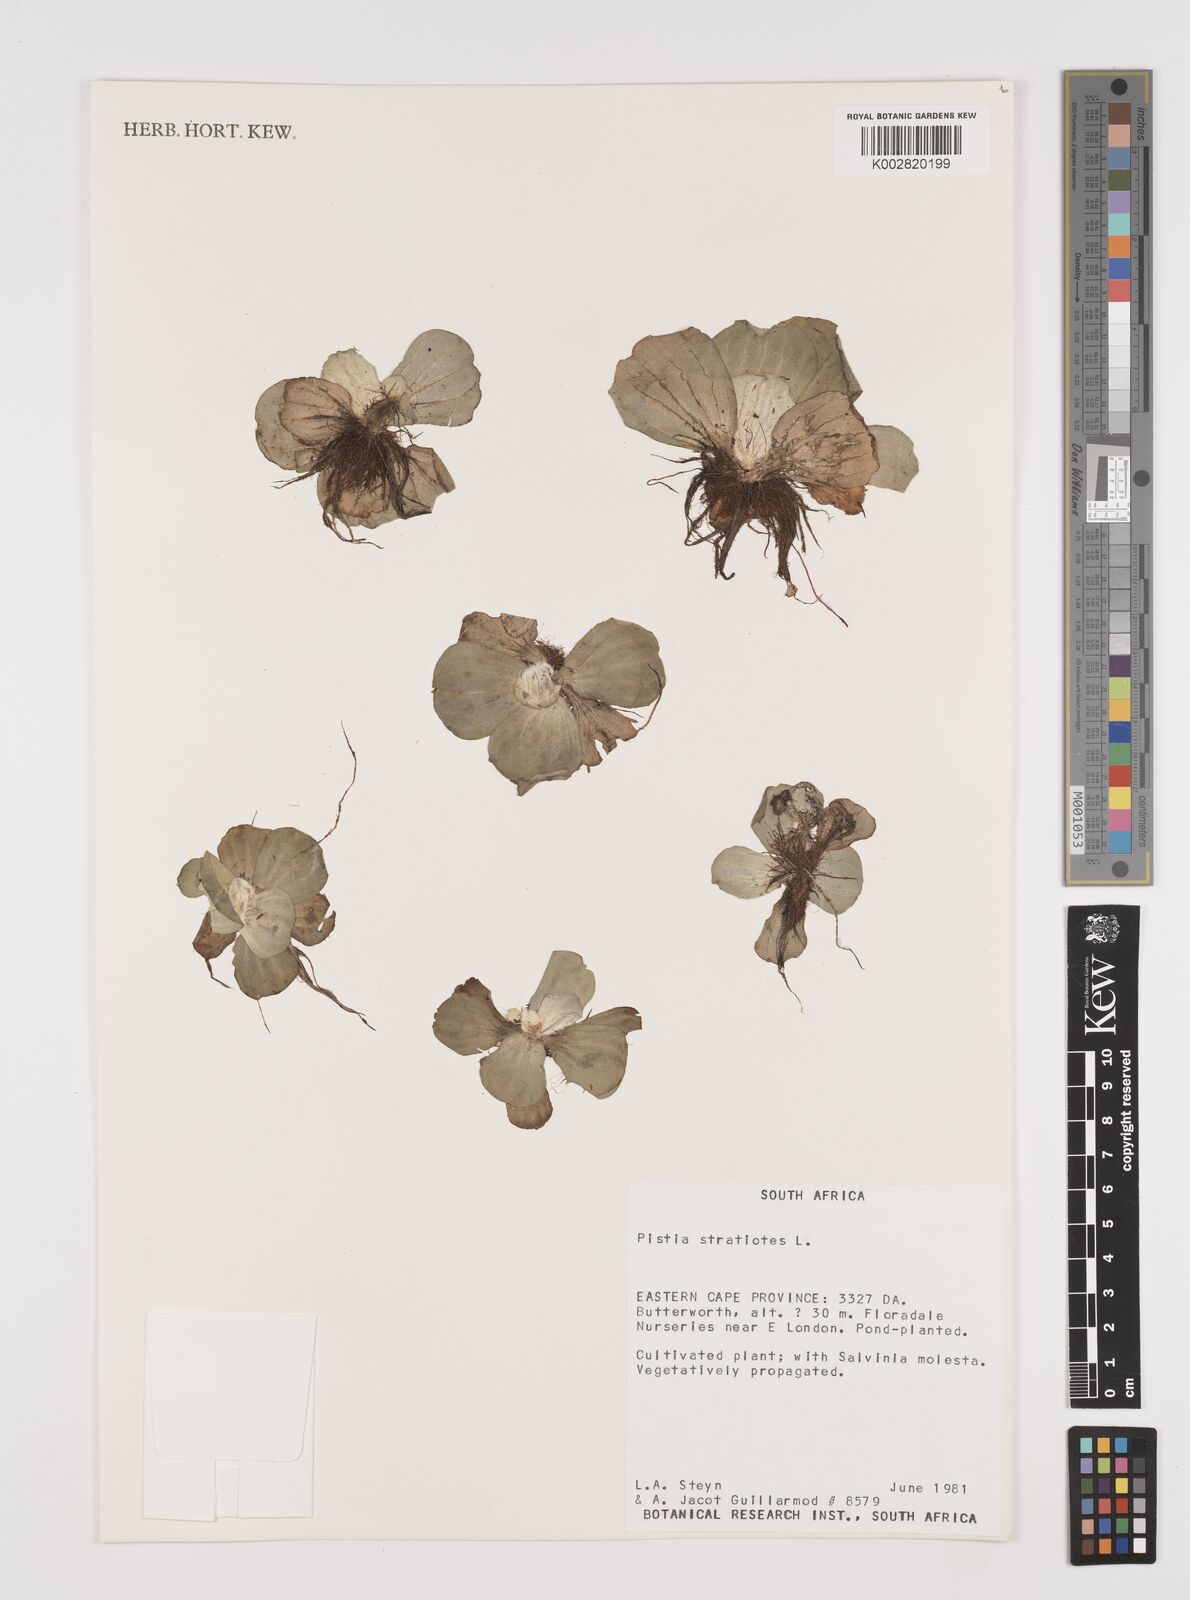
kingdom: Plantae
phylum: Tracheophyta
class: Liliopsida
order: Alismatales
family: Araceae
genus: Pistia
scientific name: Pistia stratiotes
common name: Water lettuce
